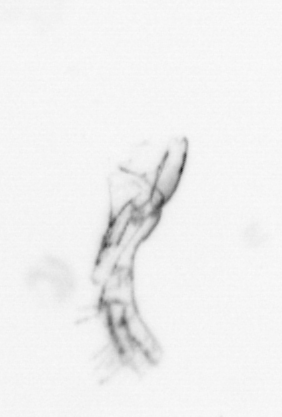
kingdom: Animalia
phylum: Arthropoda
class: Maxillopoda
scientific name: Maxillopoda
